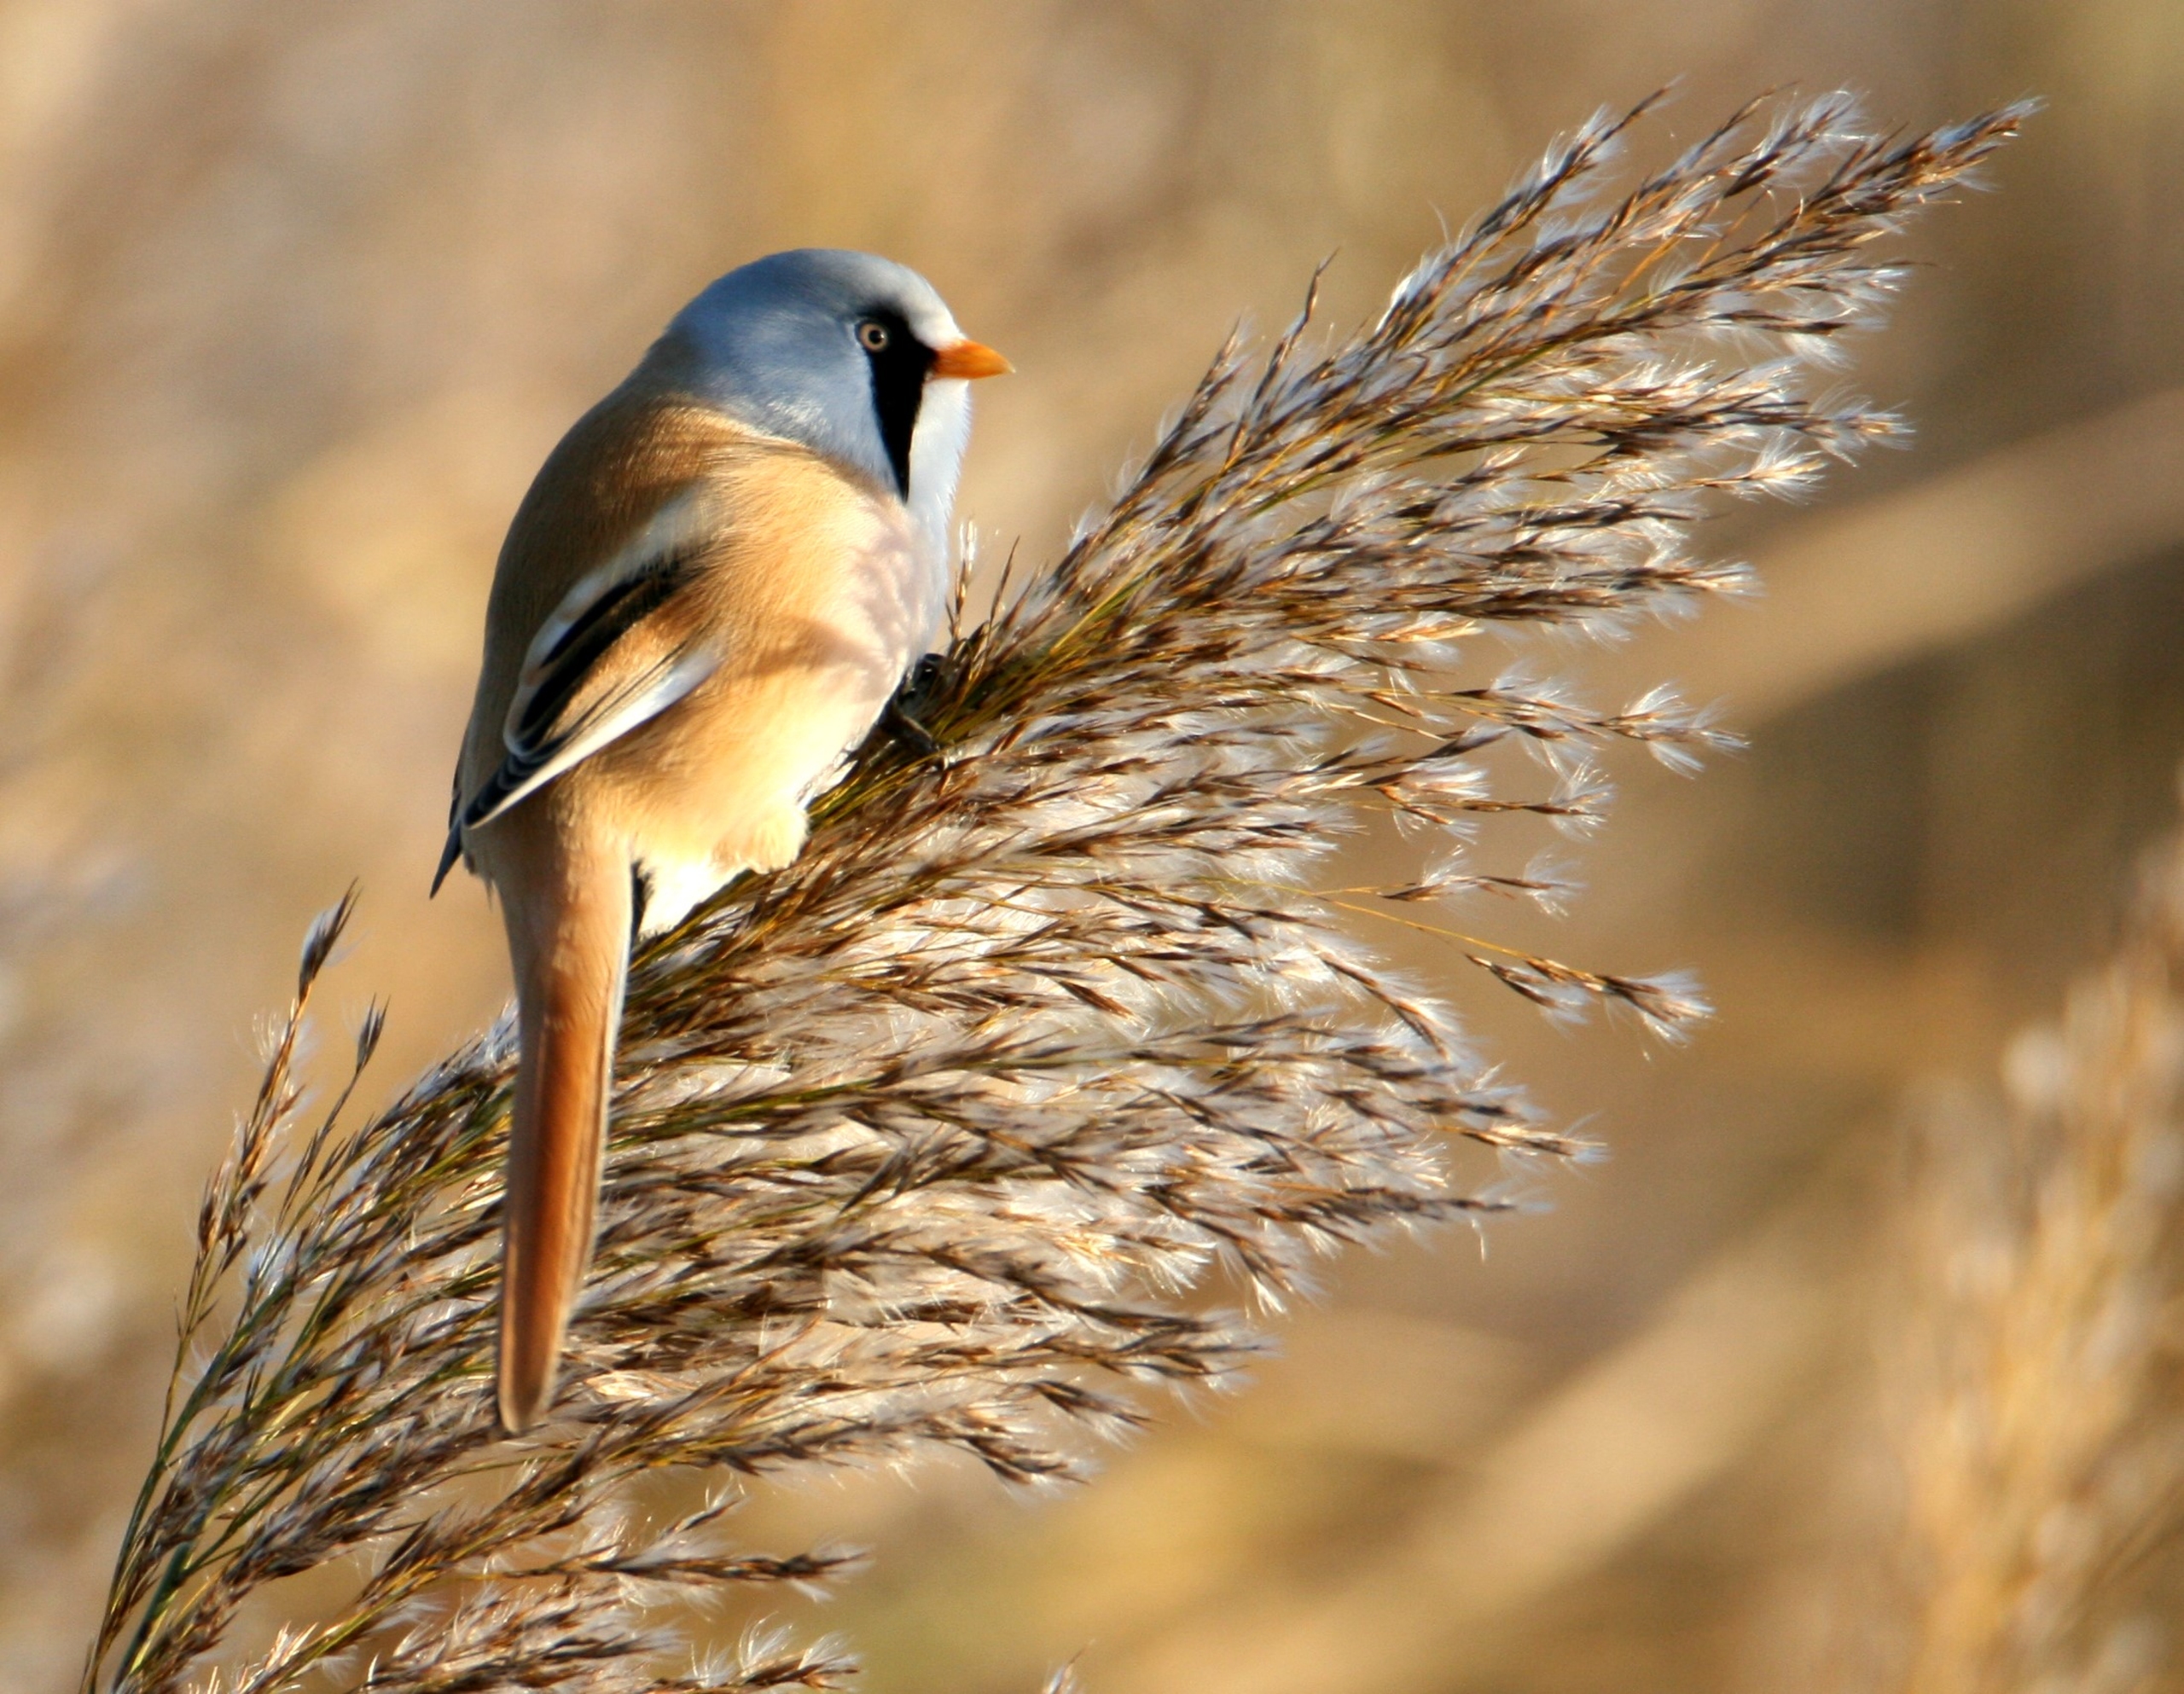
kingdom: Animalia
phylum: Chordata
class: Aves
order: Passeriformes
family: Panuridae
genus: Panurus
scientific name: Panurus biarmicus
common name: Skægmejse
